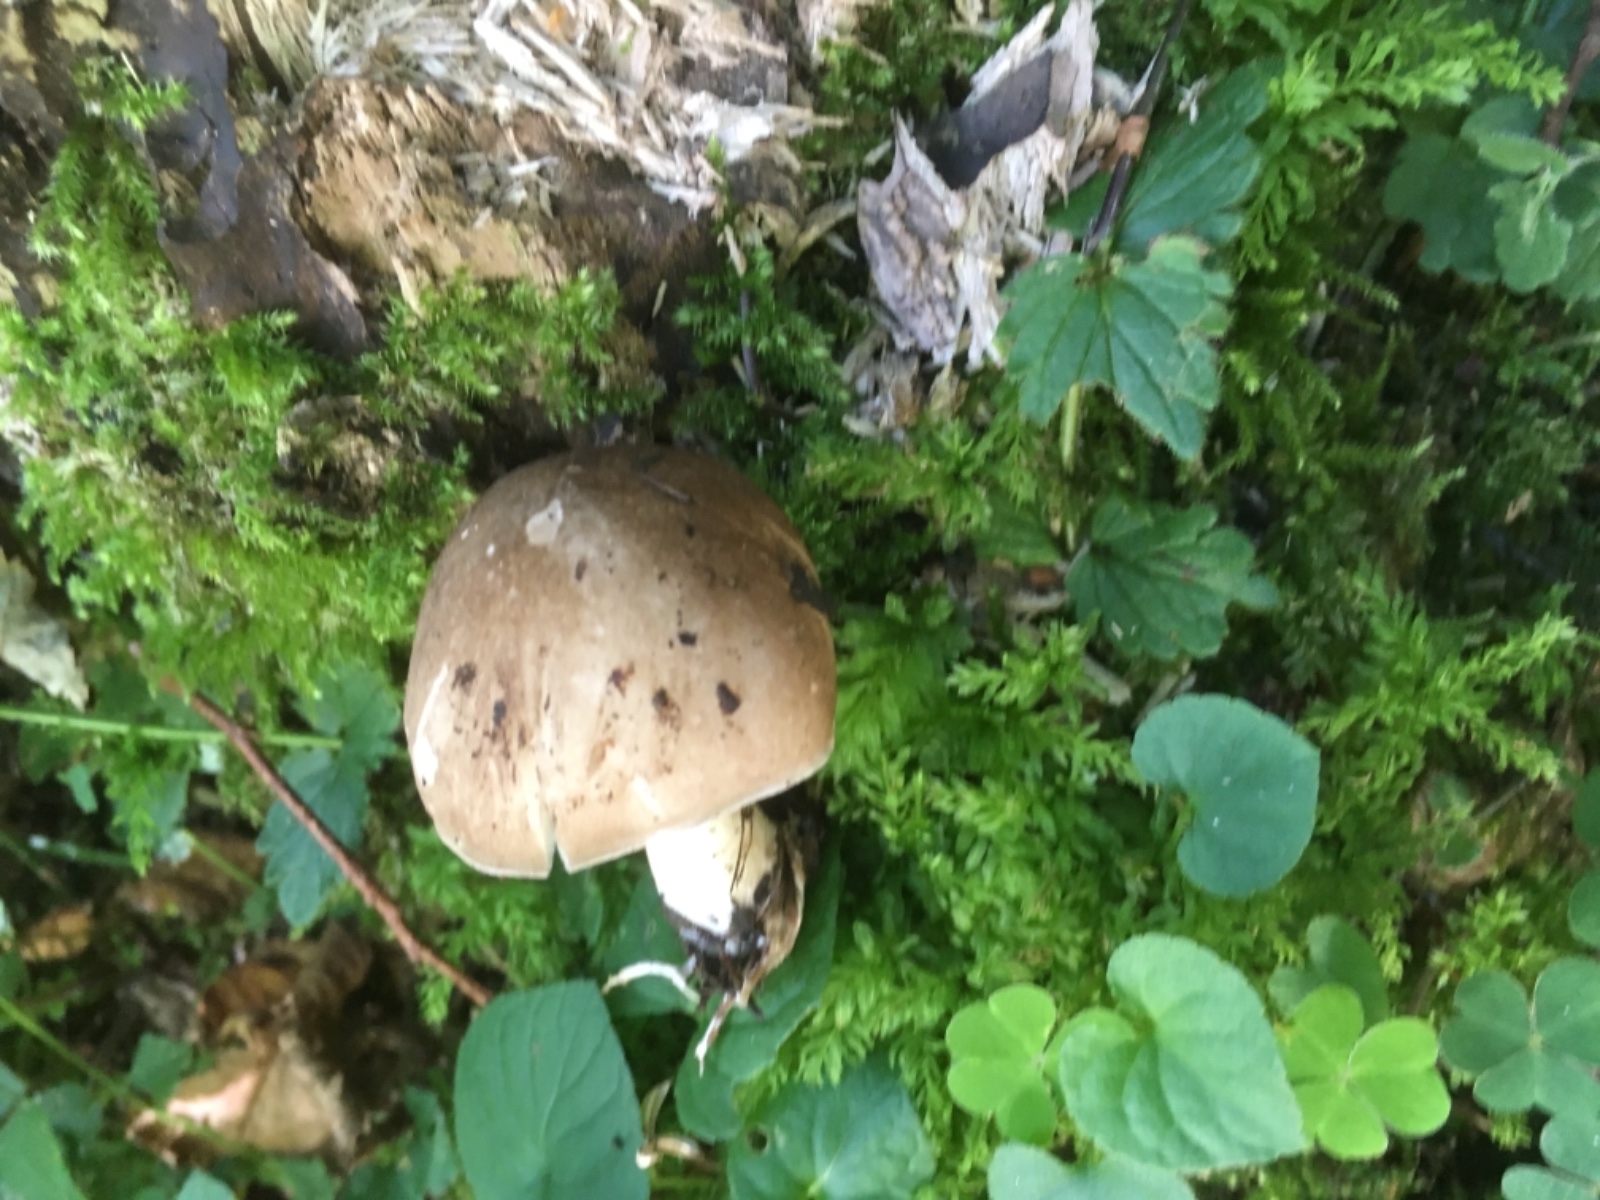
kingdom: Fungi
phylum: Basidiomycota
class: Agaricomycetes
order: Agaricales
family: Tricholomataceae
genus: Megacollybia
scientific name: Megacollybia platyphylla
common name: bredbladet væbnerhat
